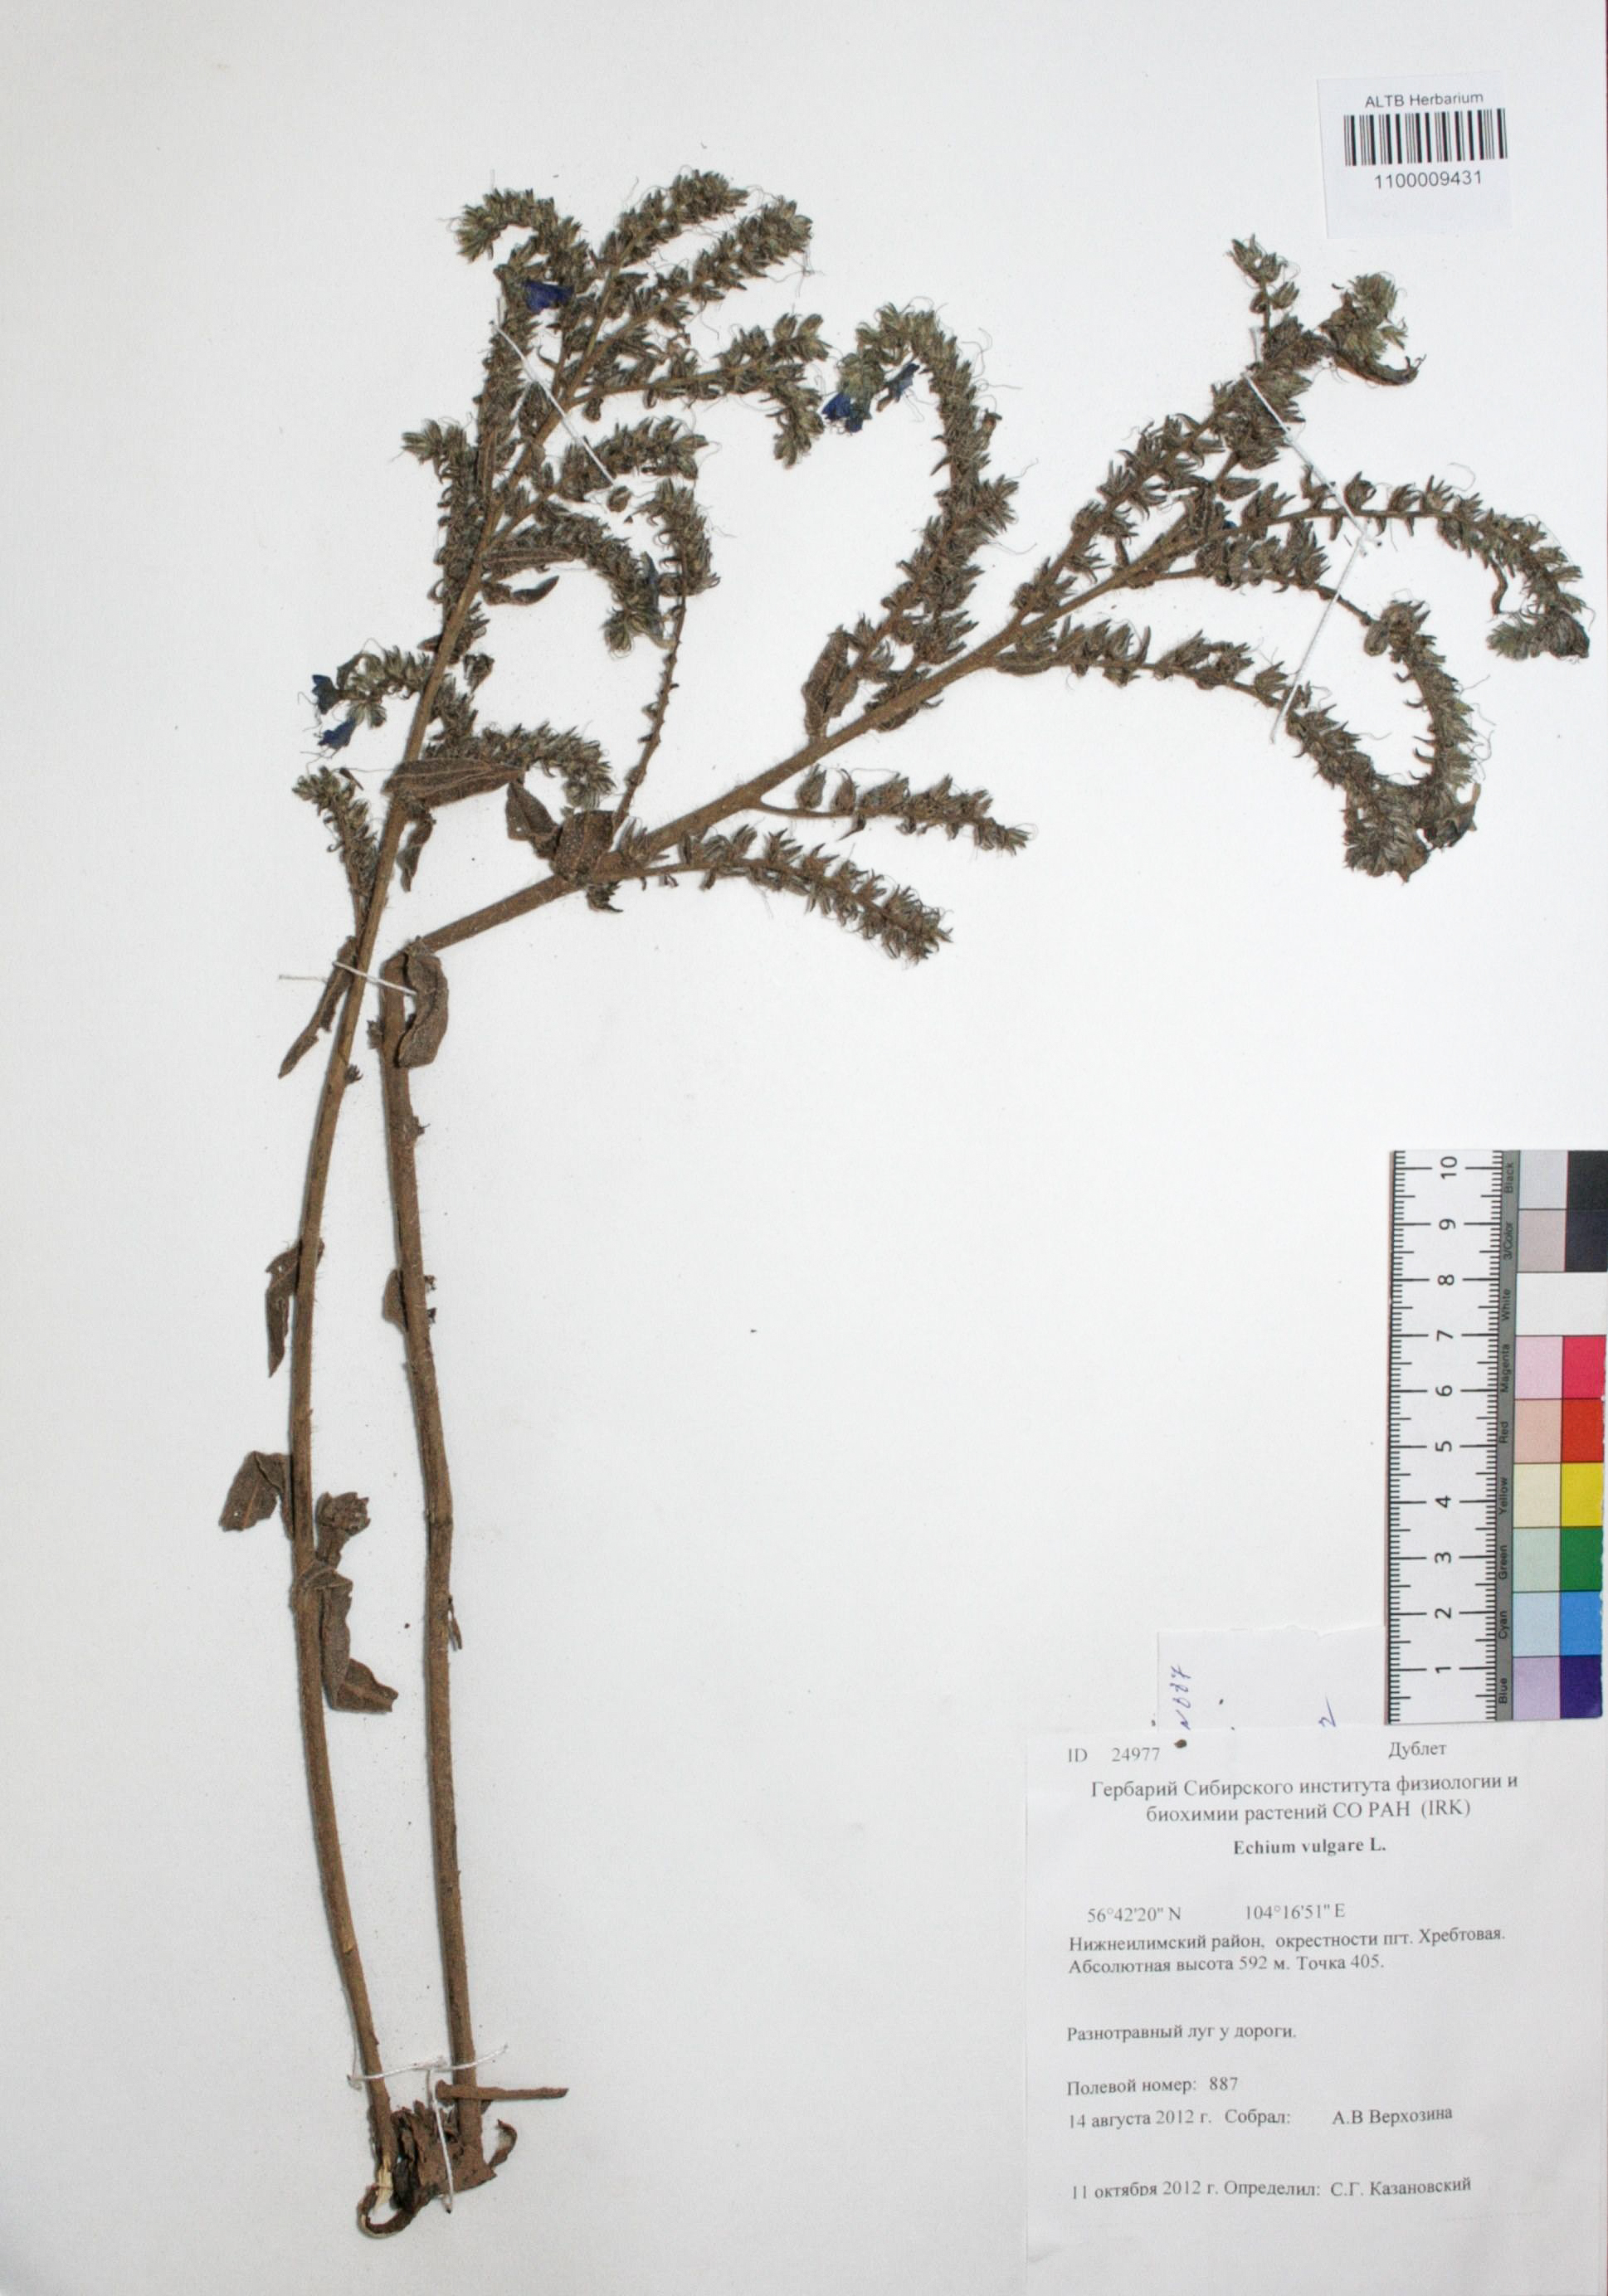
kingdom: Plantae
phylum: Tracheophyta
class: Magnoliopsida
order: Boraginales
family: Boraginaceae
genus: Echium
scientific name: Echium vulgare
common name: Common viper's bugloss
